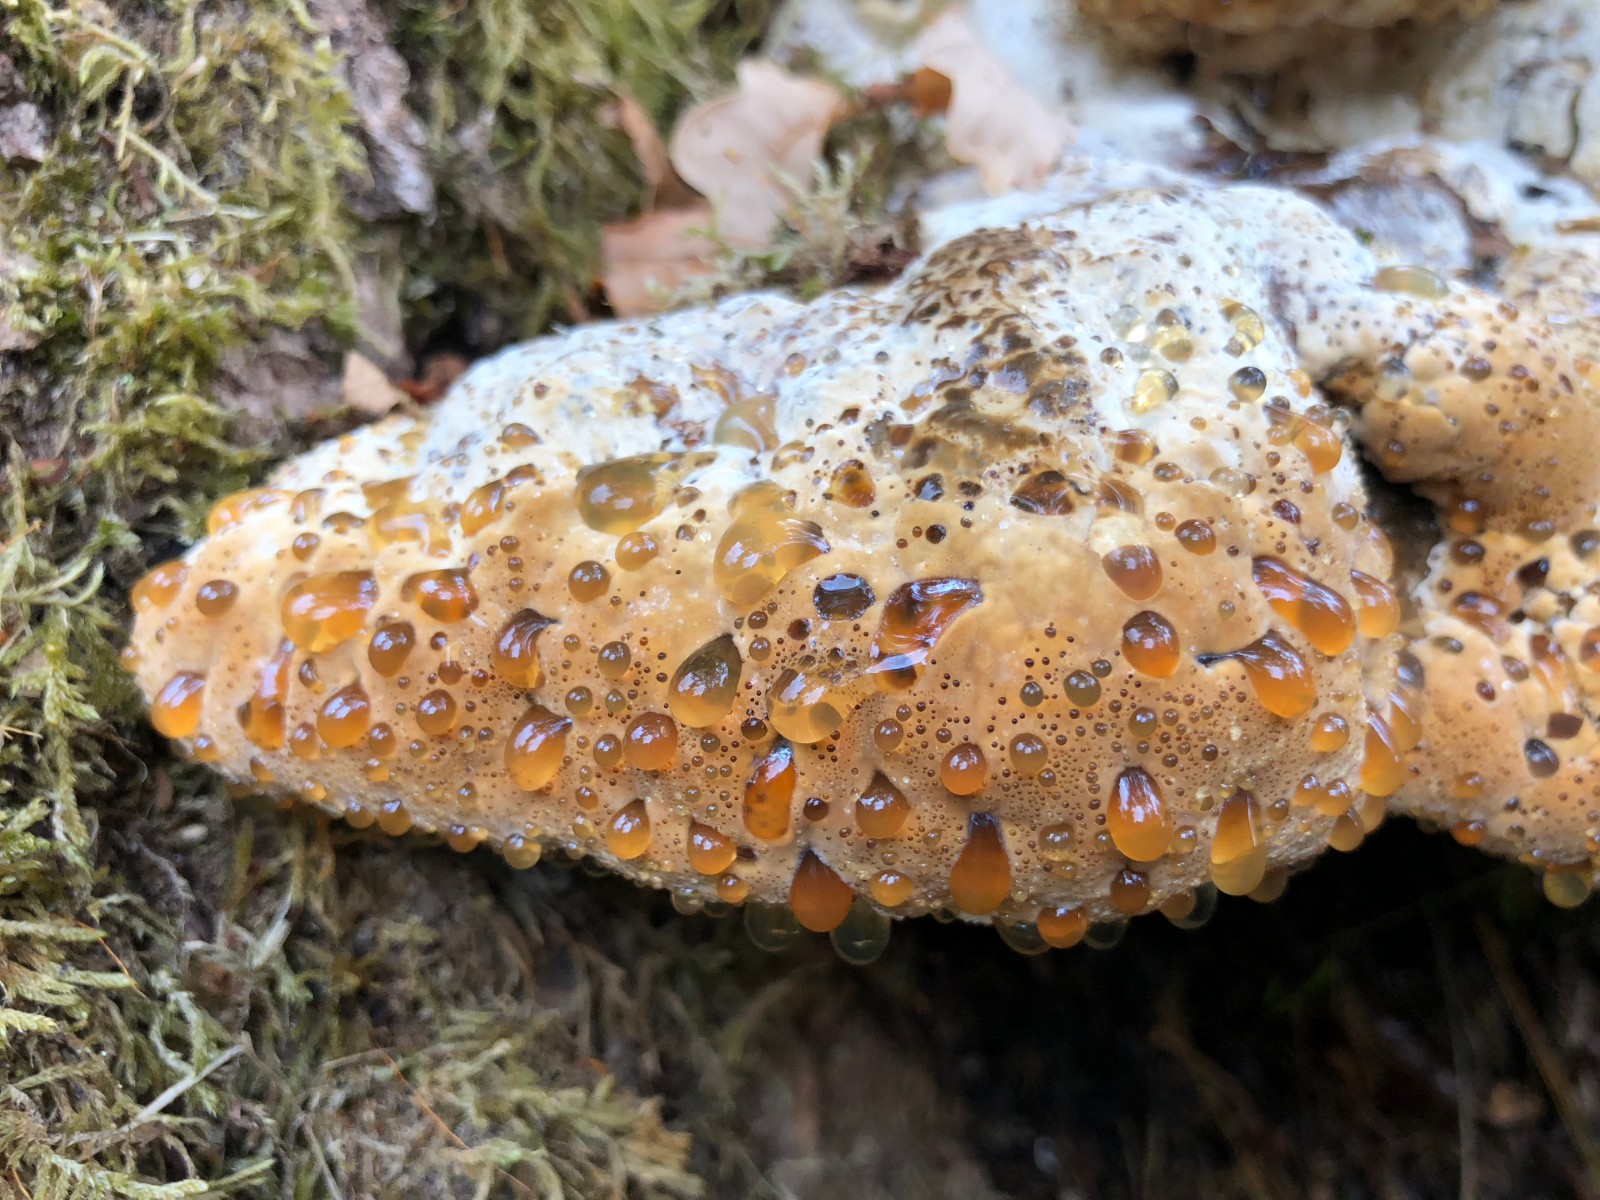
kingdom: Fungi
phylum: Basidiomycota
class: Agaricomycetes
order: Hymenochaetales
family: Hymenochaetaceae
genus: Pseudoinonotus
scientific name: Pseudoinonotus dryadeus
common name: ege-spejlporesvamp
